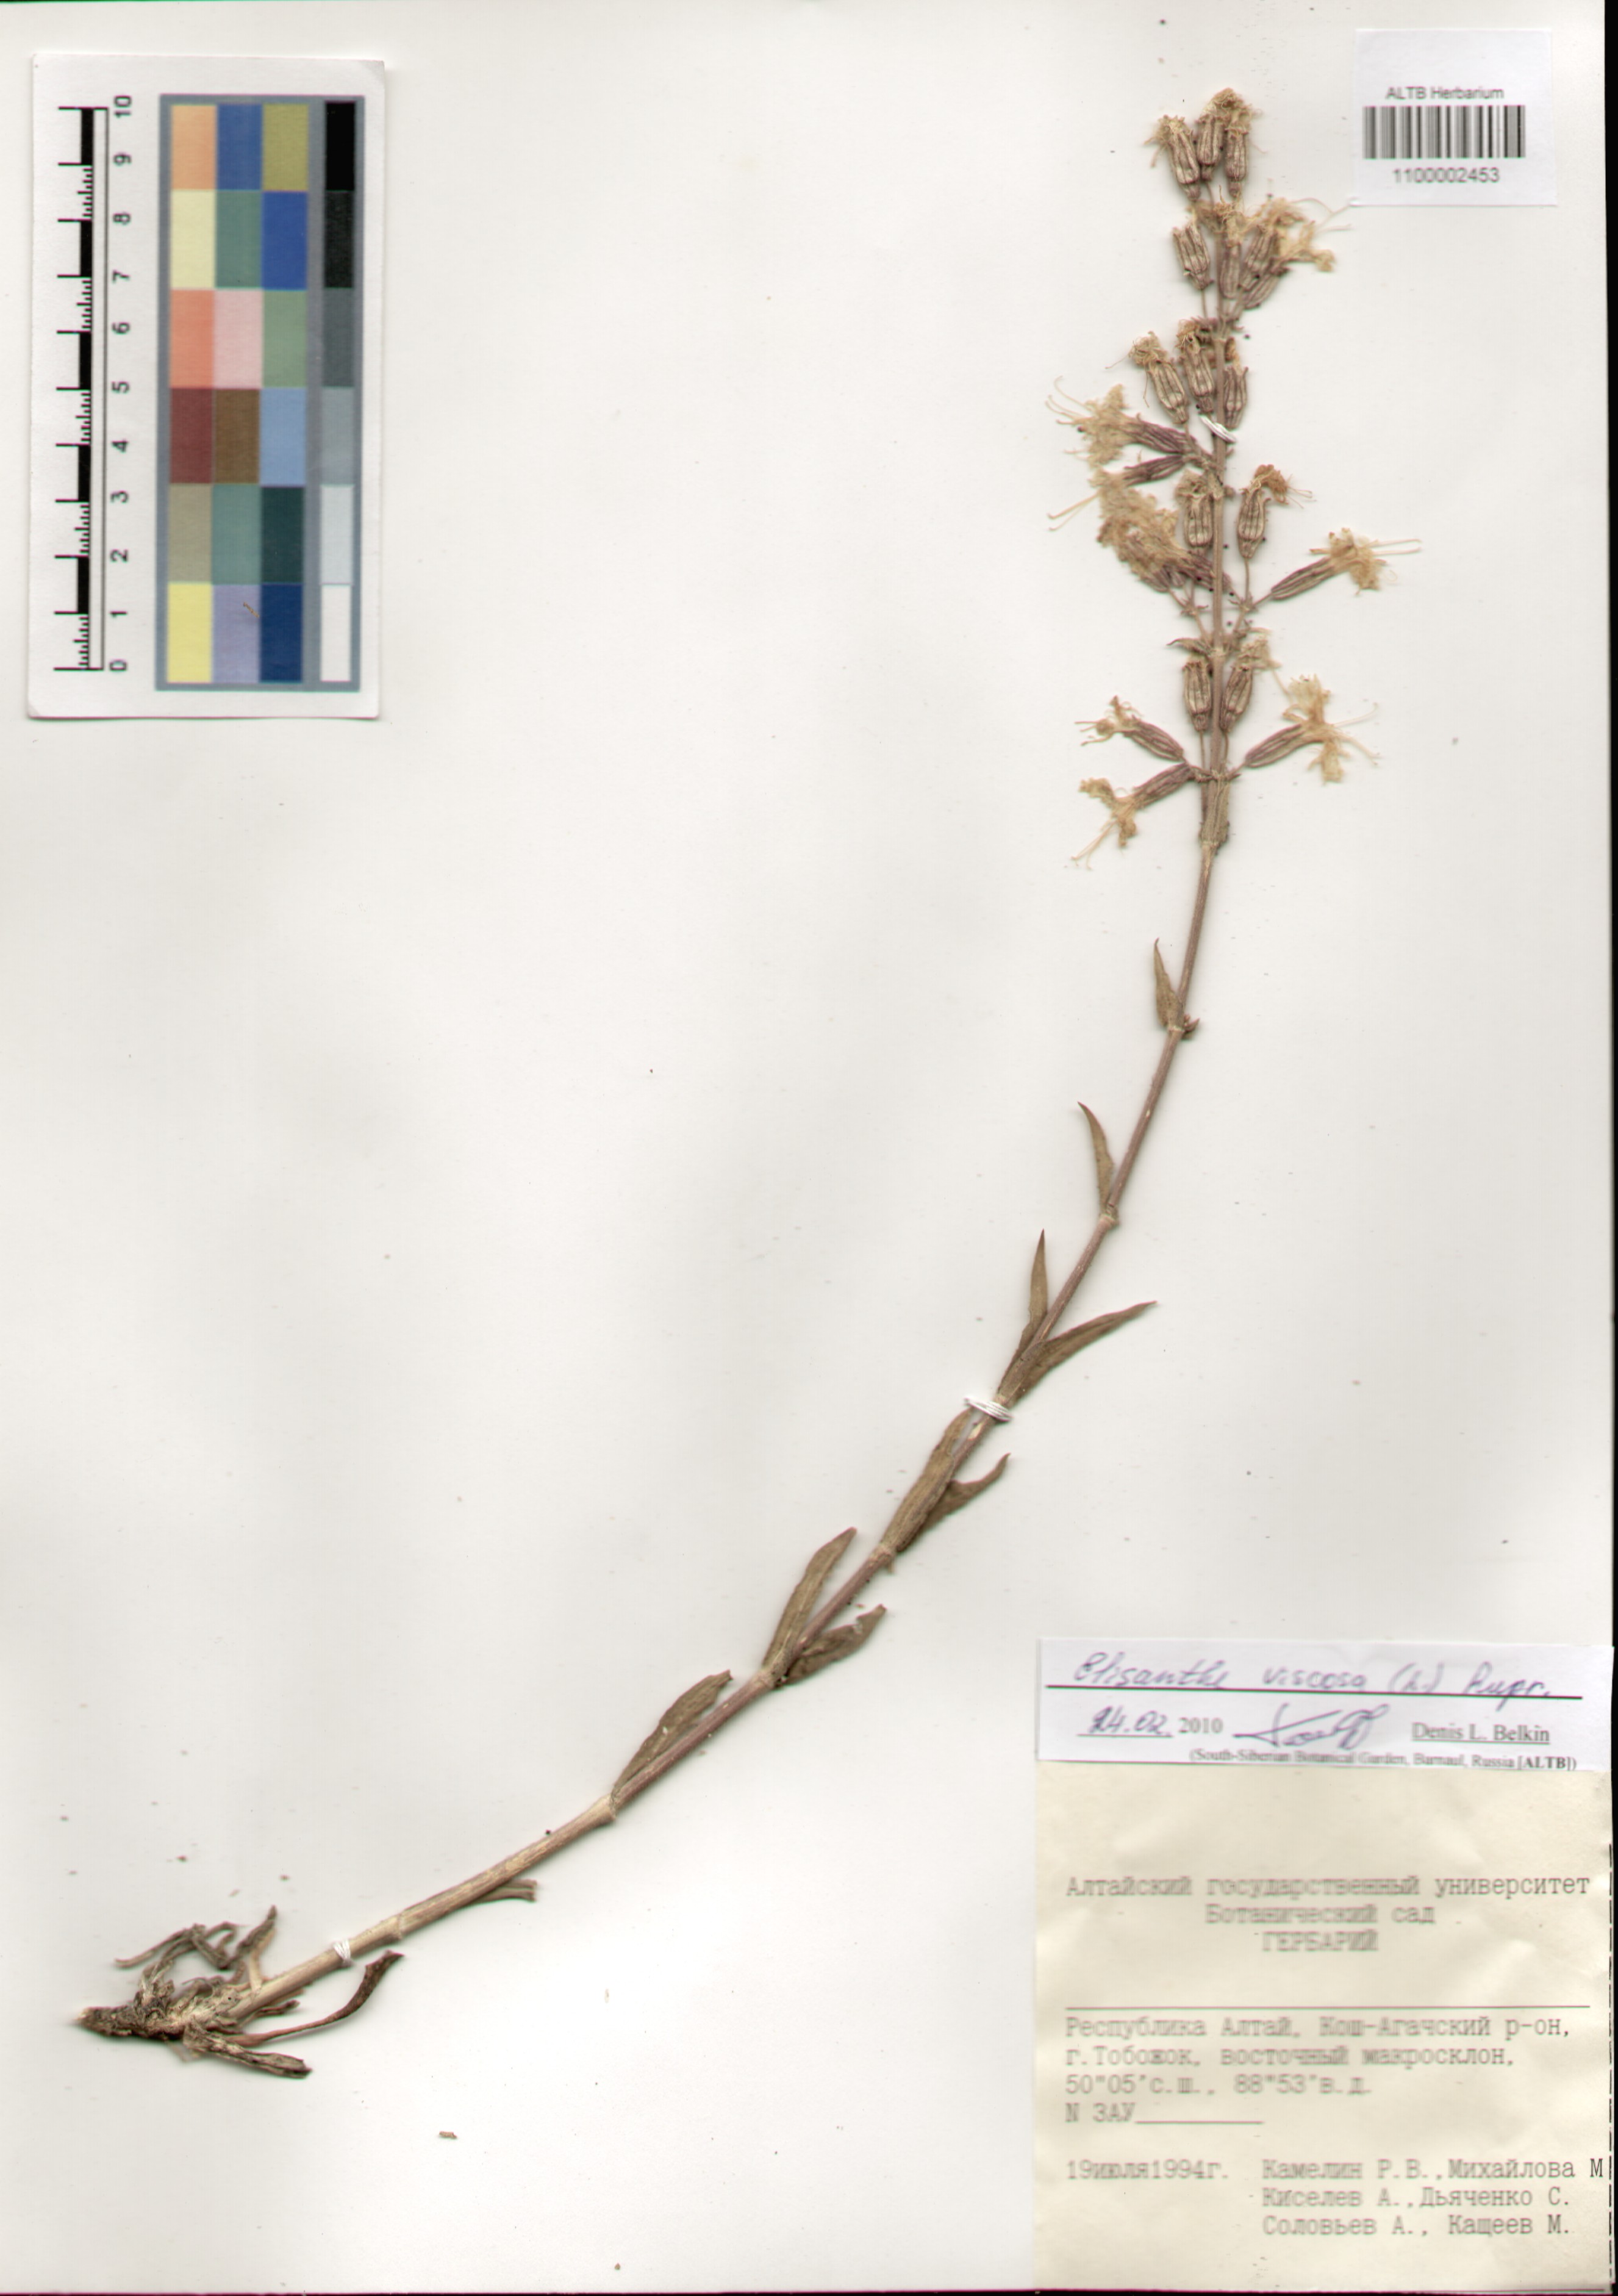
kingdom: Plantae
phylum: Tracheophyta
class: Magnoliopsida
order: Caryophyllales
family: Caryophyllaceae
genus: Silene
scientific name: Silene viscosa
